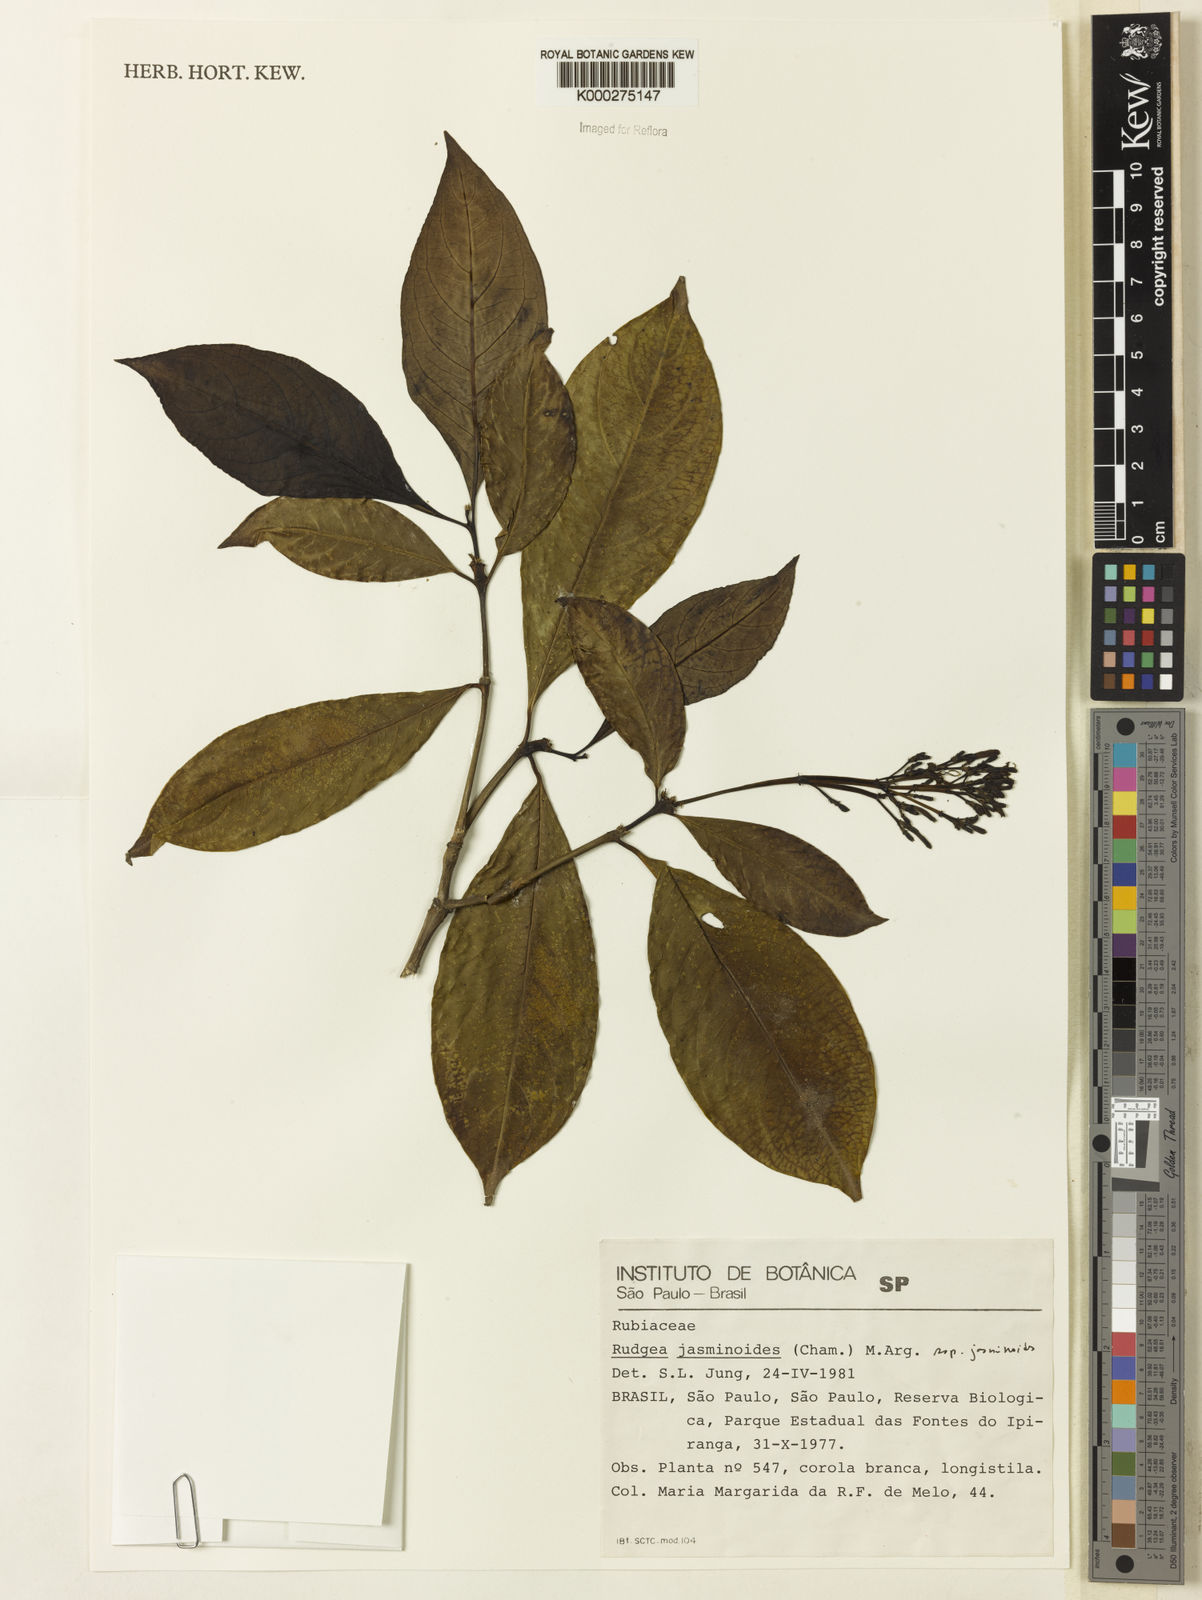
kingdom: Plantae
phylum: Tracheophyta
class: Magnoliopsida
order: Gentianales
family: Rubiaceae
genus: Rudgea
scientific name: Rudgea jasminoides
